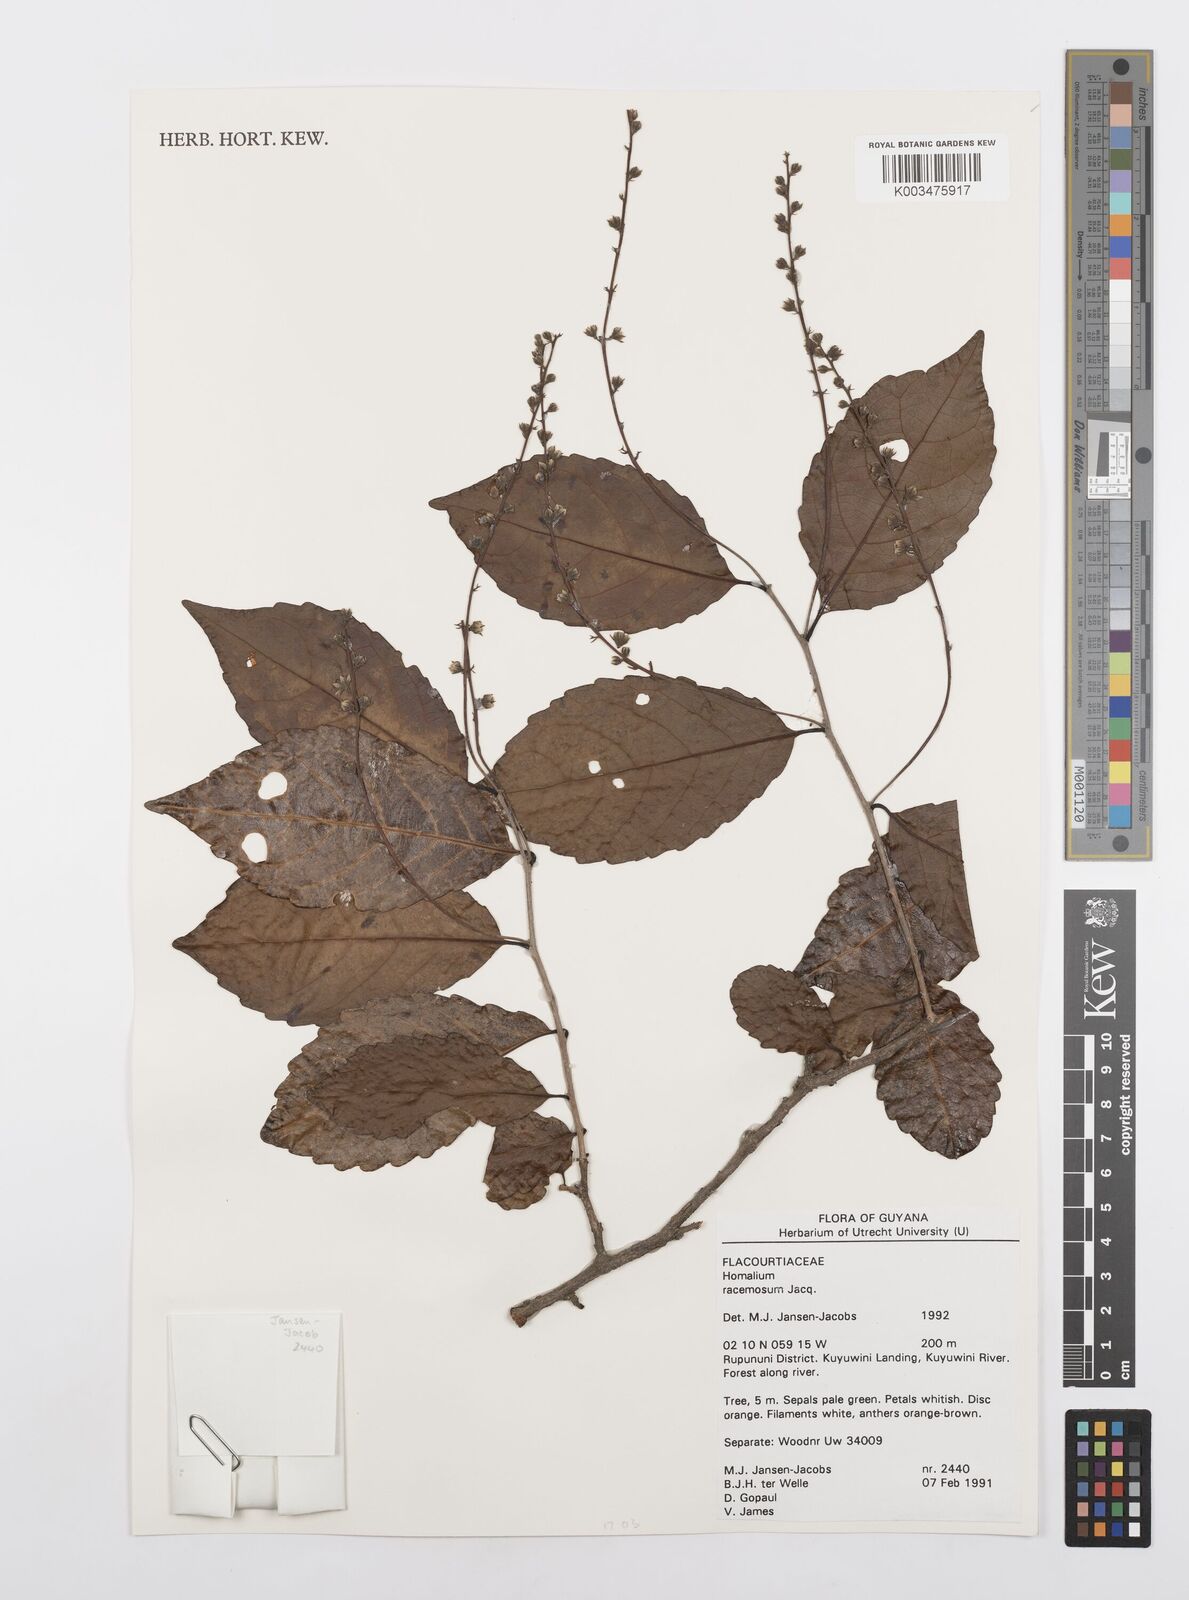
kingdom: Plantae
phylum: Tracheophyta
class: Magnoliopsida
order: Malpighiales
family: Salicaceae
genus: Homalium
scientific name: Homalium racemosum
